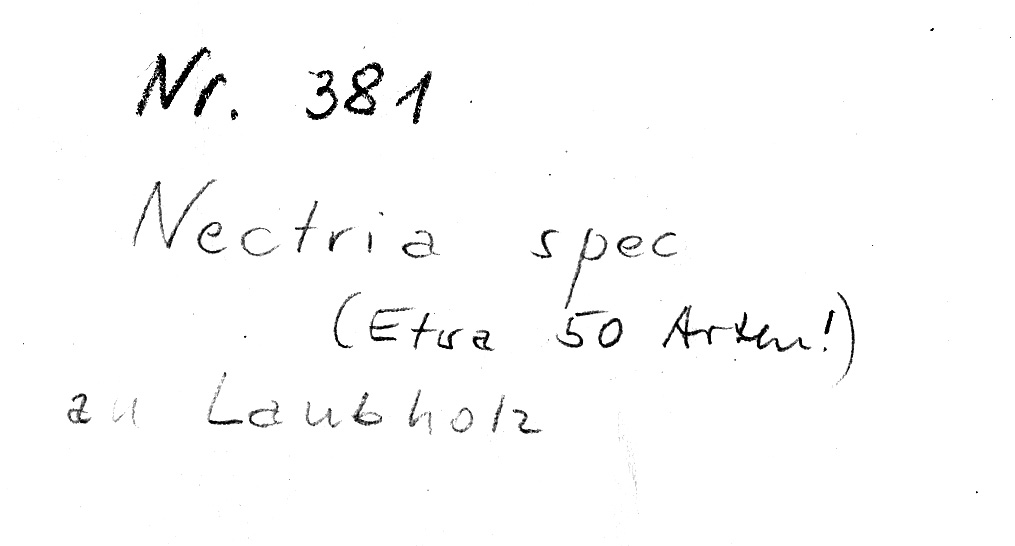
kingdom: Fungi
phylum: Ascomycota
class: Sordariomycetes
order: Hypocreales
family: Nectriaceae
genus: Nectria
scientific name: Nectria
